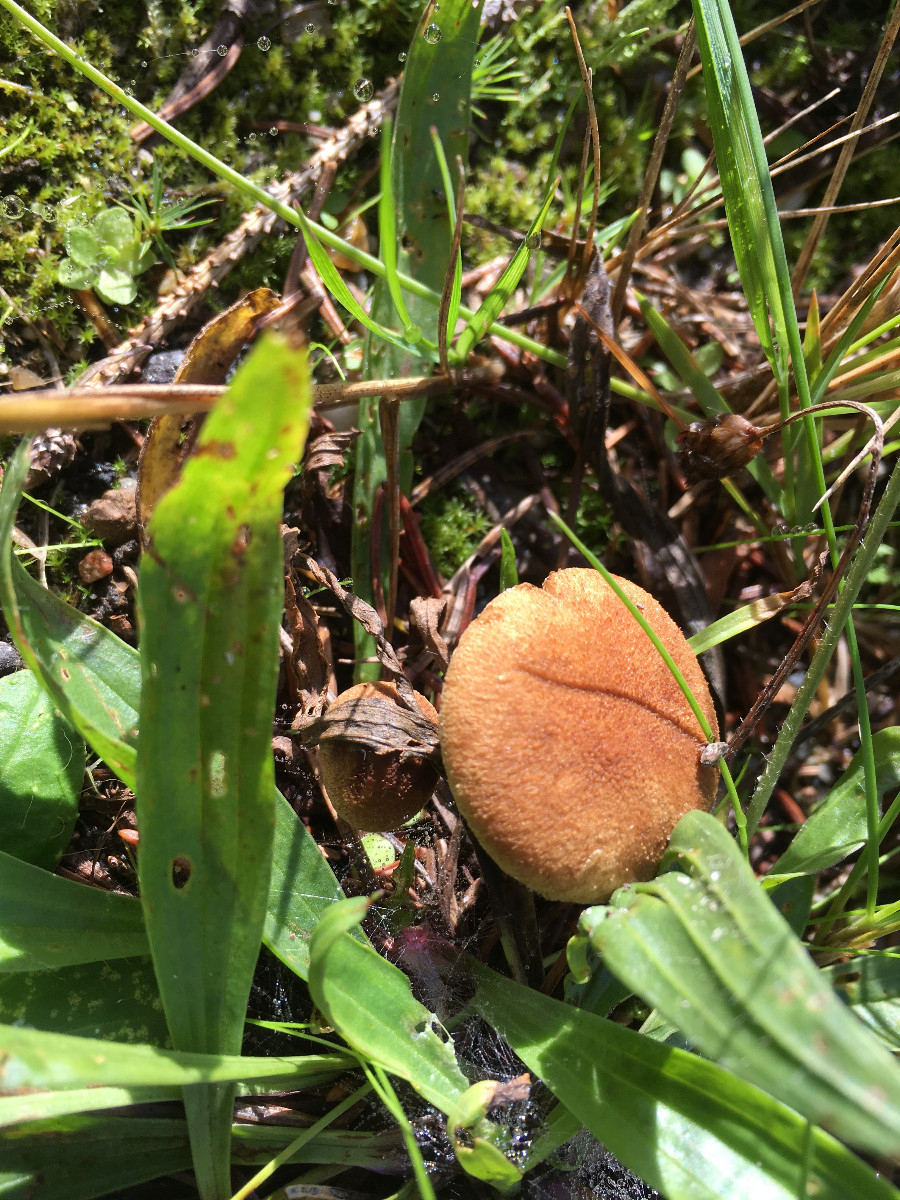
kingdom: Fungi
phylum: Basidiomycota
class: Agaricomycetes
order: Agaricales
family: Inocybaceae
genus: Inocybe
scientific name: Inocybe
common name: trævlhat
